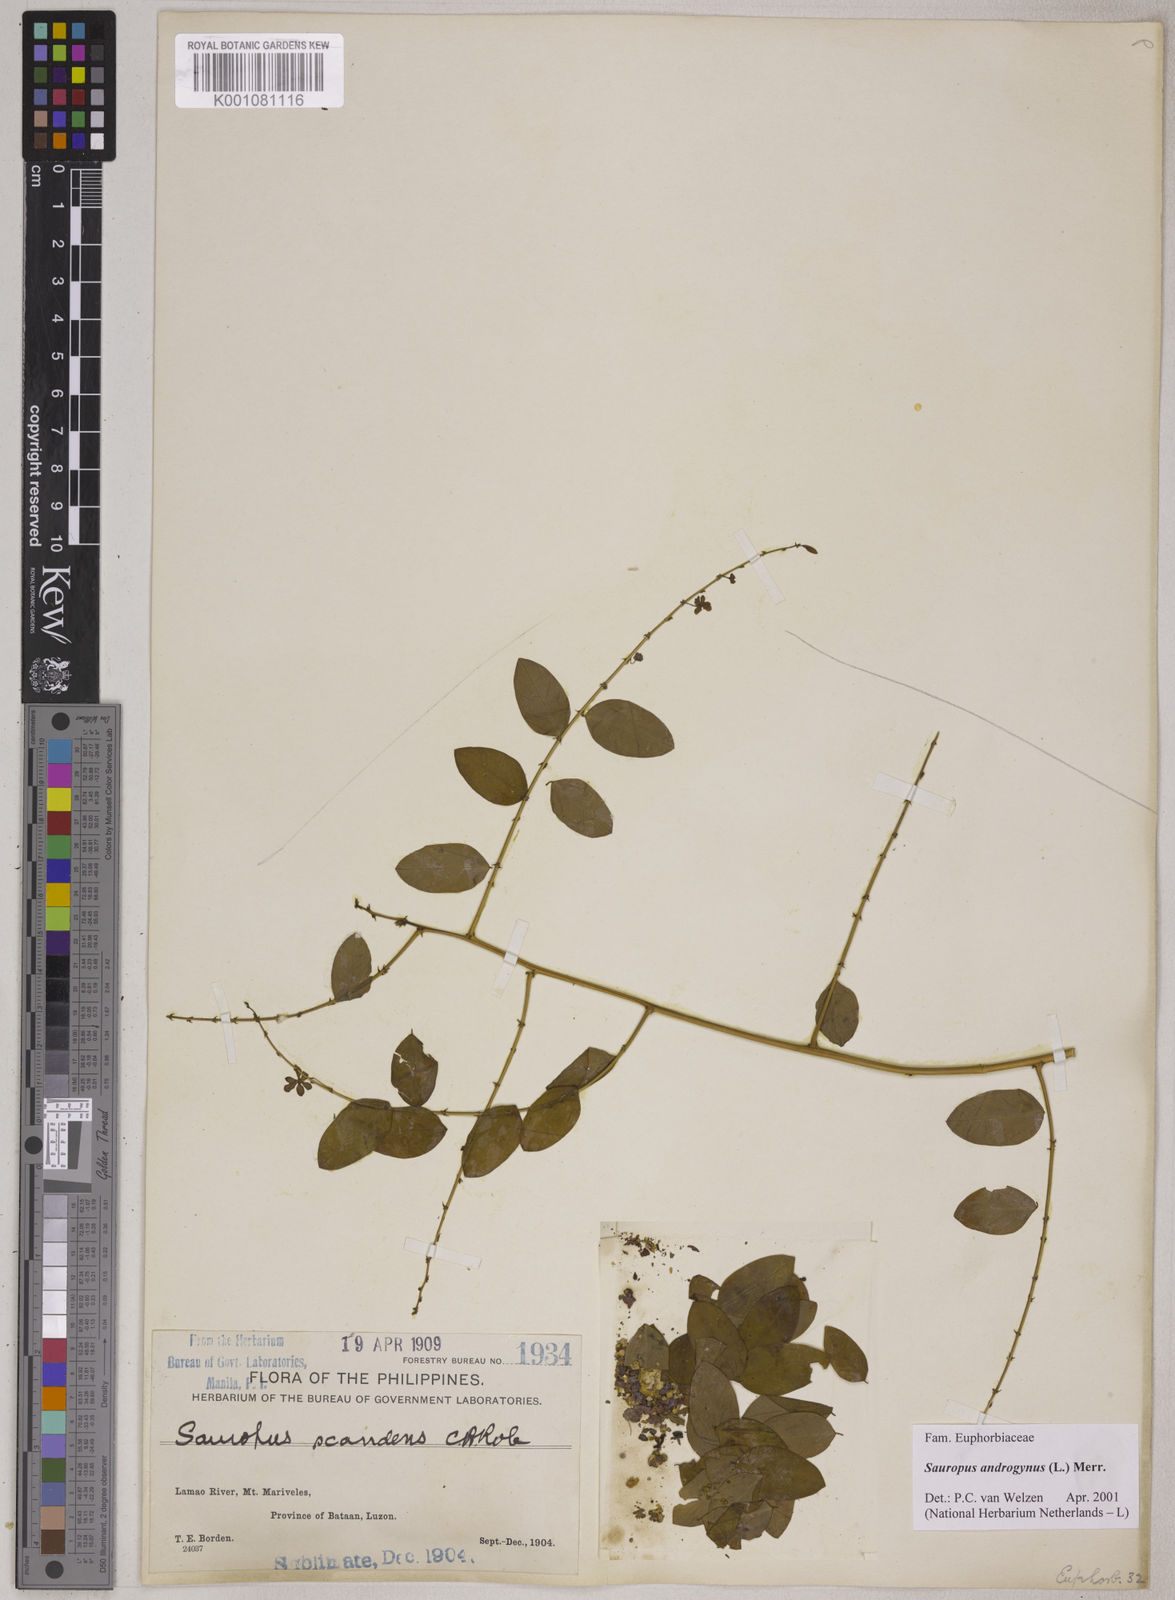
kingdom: Plantae
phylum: Tracheophyta
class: Magnoliopsida
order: Malpighiales
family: Phyllanthaceae
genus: Breynia
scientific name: Breynia androgyna
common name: Star gooseberry
